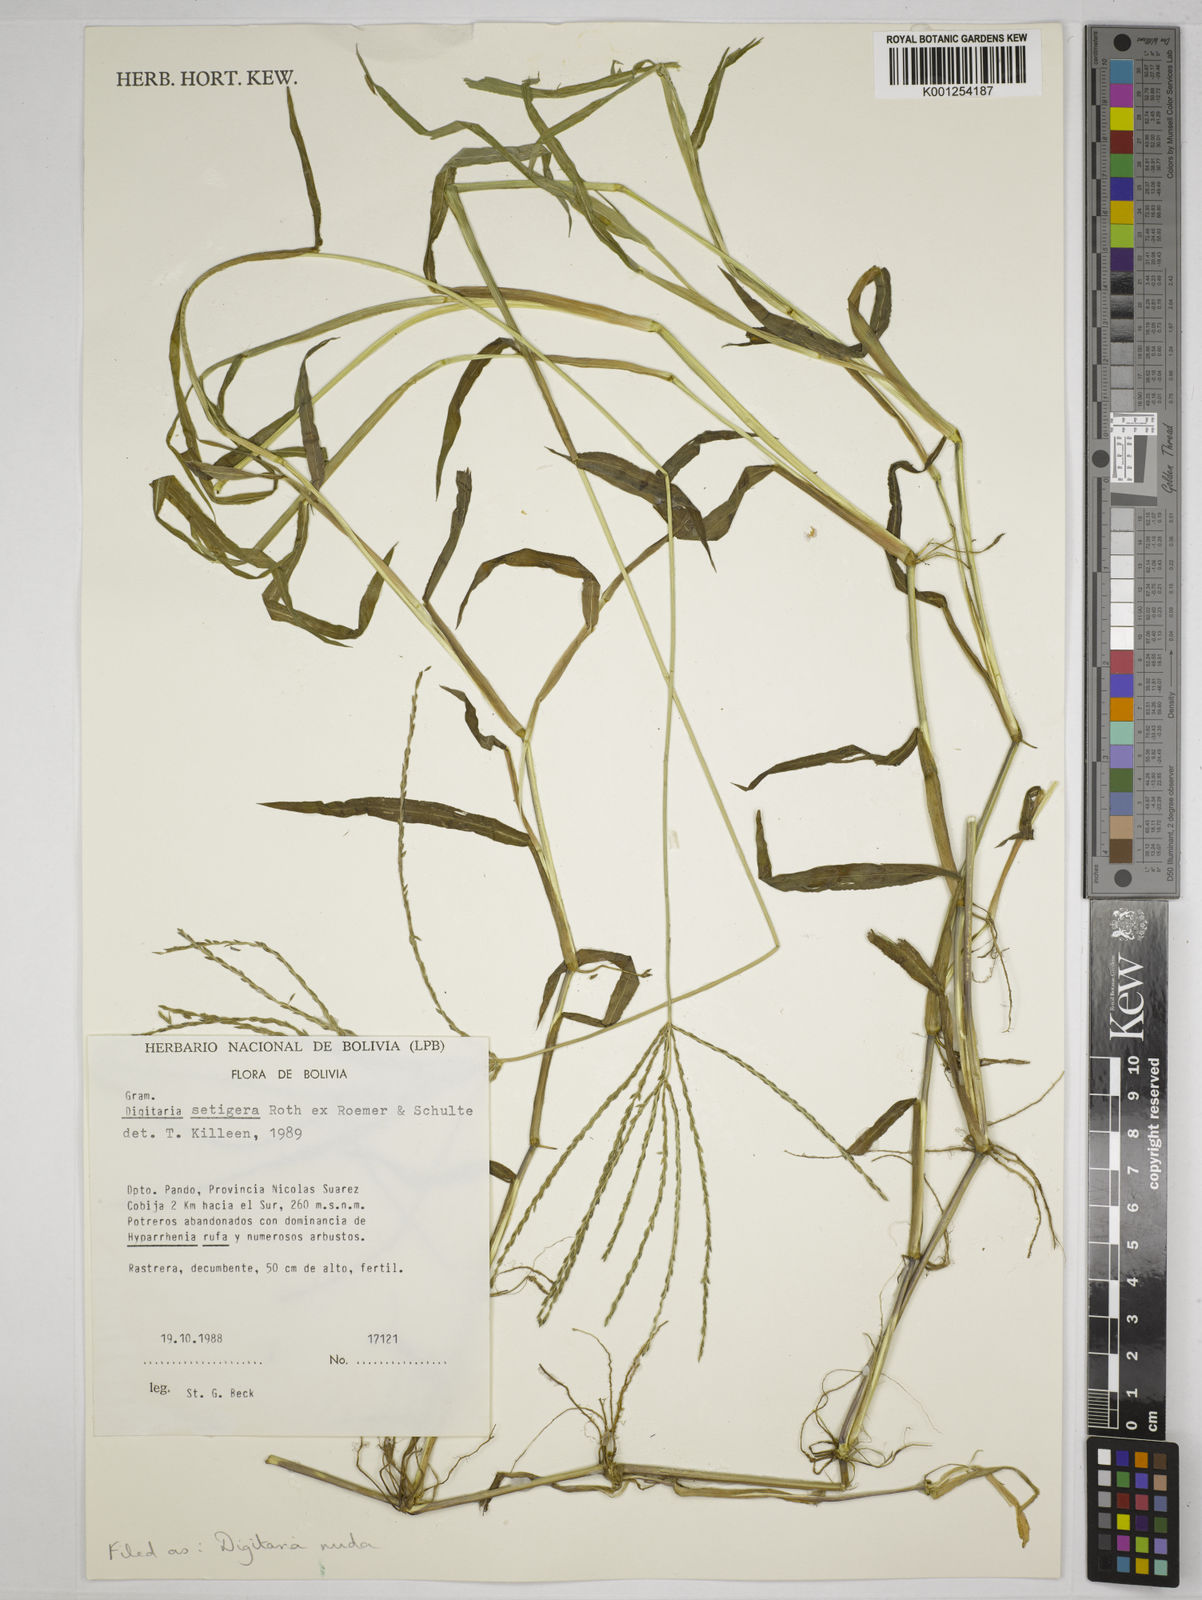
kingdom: Plantae
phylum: Tracheophyta
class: Liliopsida
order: Poales
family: Poaceae
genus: Digitaria
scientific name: Digitaria nuda
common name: Naked crabgrass
